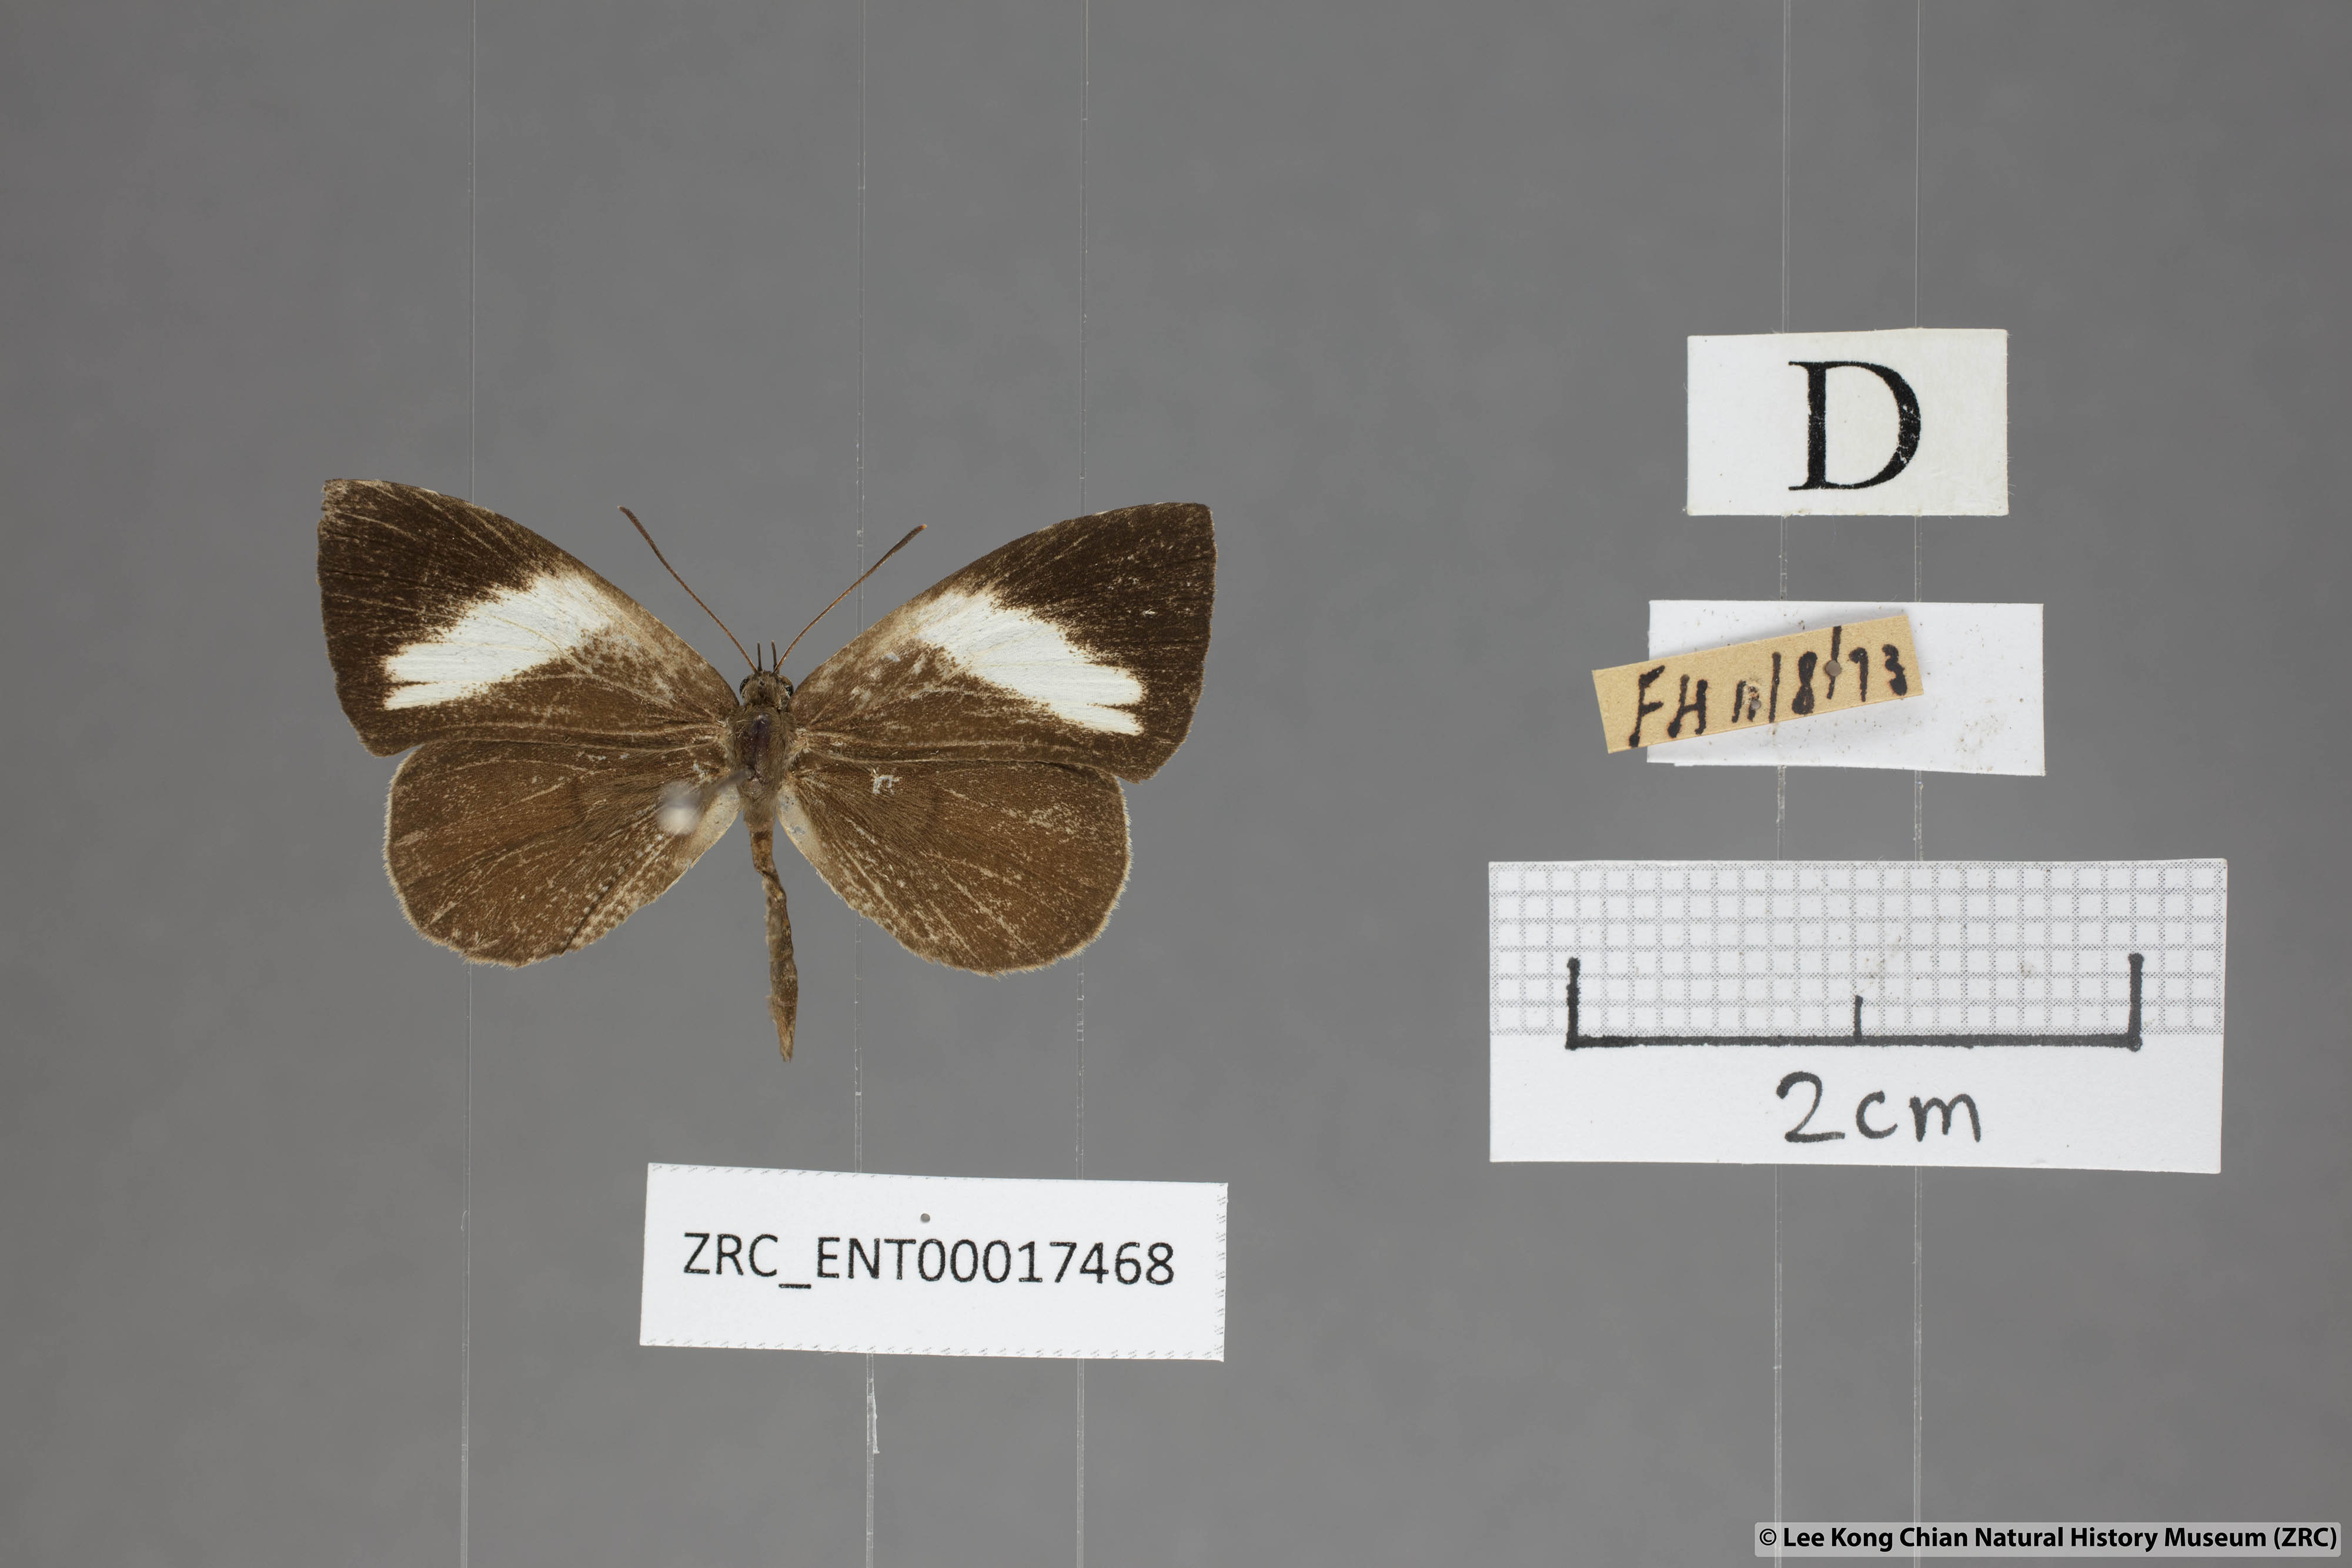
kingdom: Animalia
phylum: Arthropoda
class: Insecta
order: Lepidoptera
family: Lycaenidae
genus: Miletus
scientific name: Miletus nymphis
